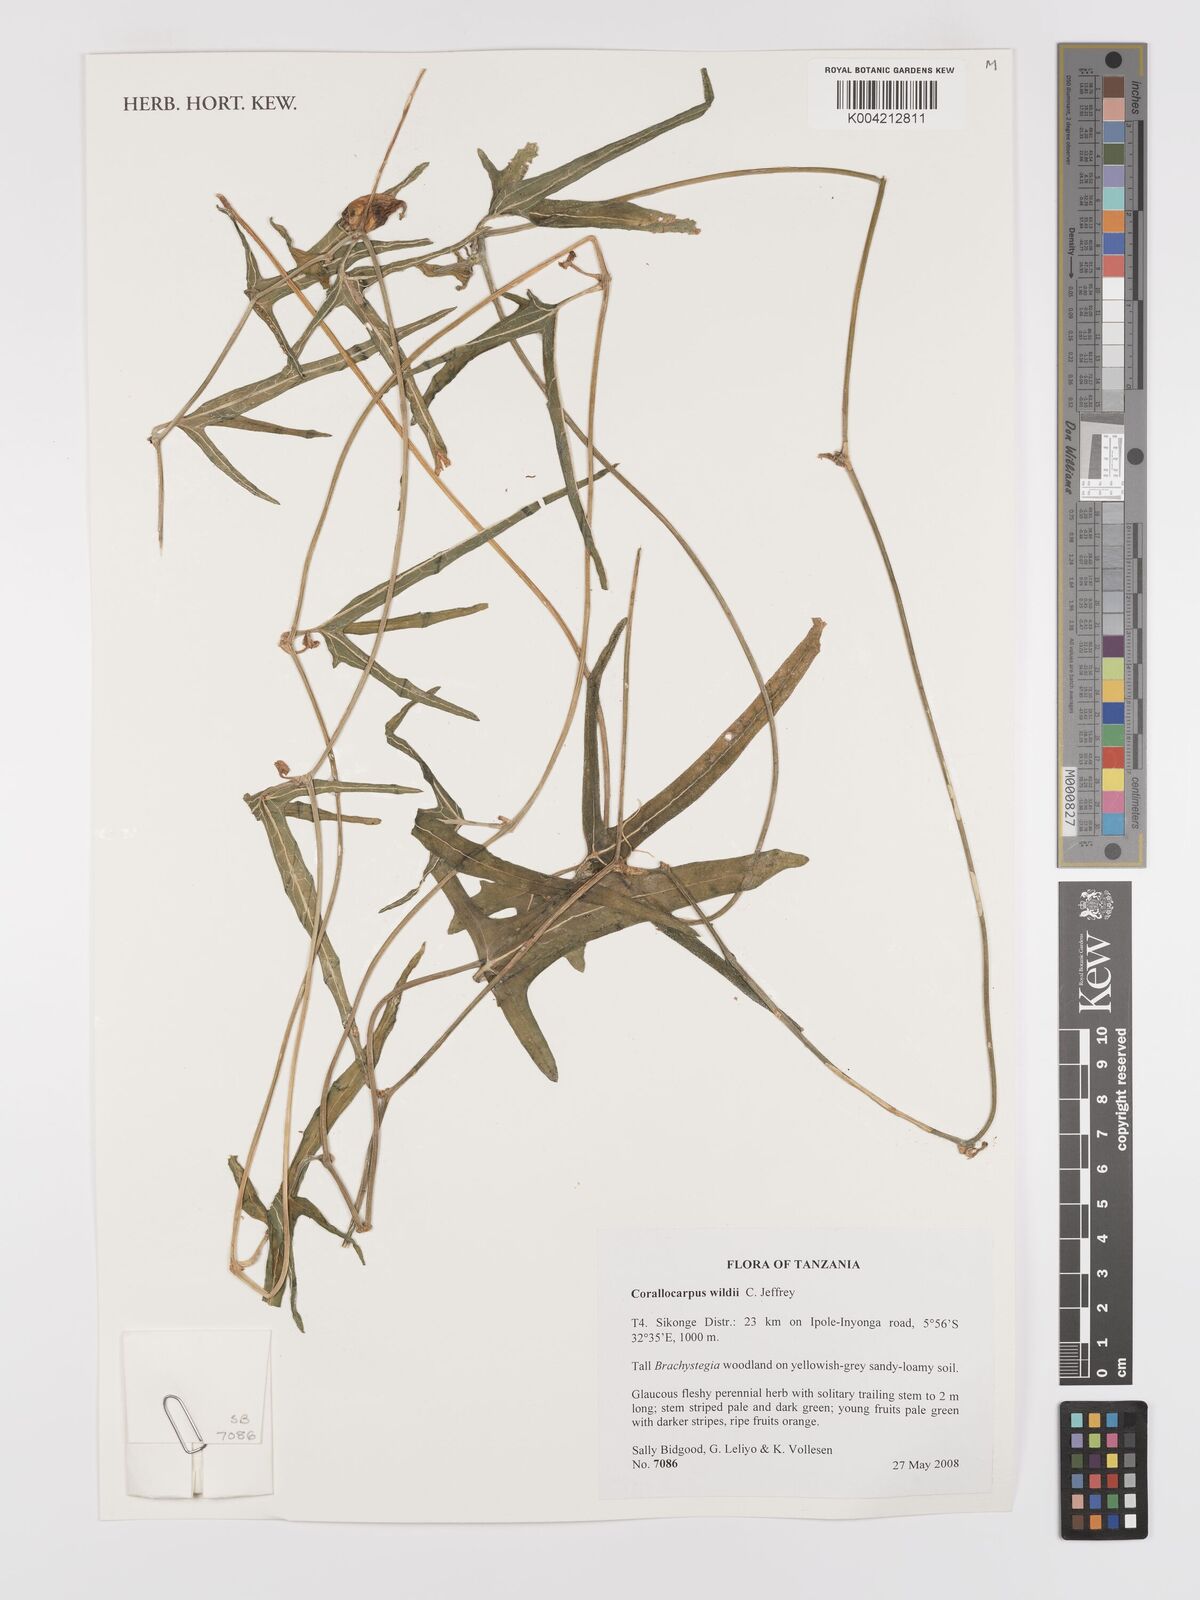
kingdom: Plantae
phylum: Tracheophyta
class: Magnoliopsida
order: Cucurbitales
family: Cucurbitaceae
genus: Corallocarpus
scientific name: Corallocarpus tenuissimus
